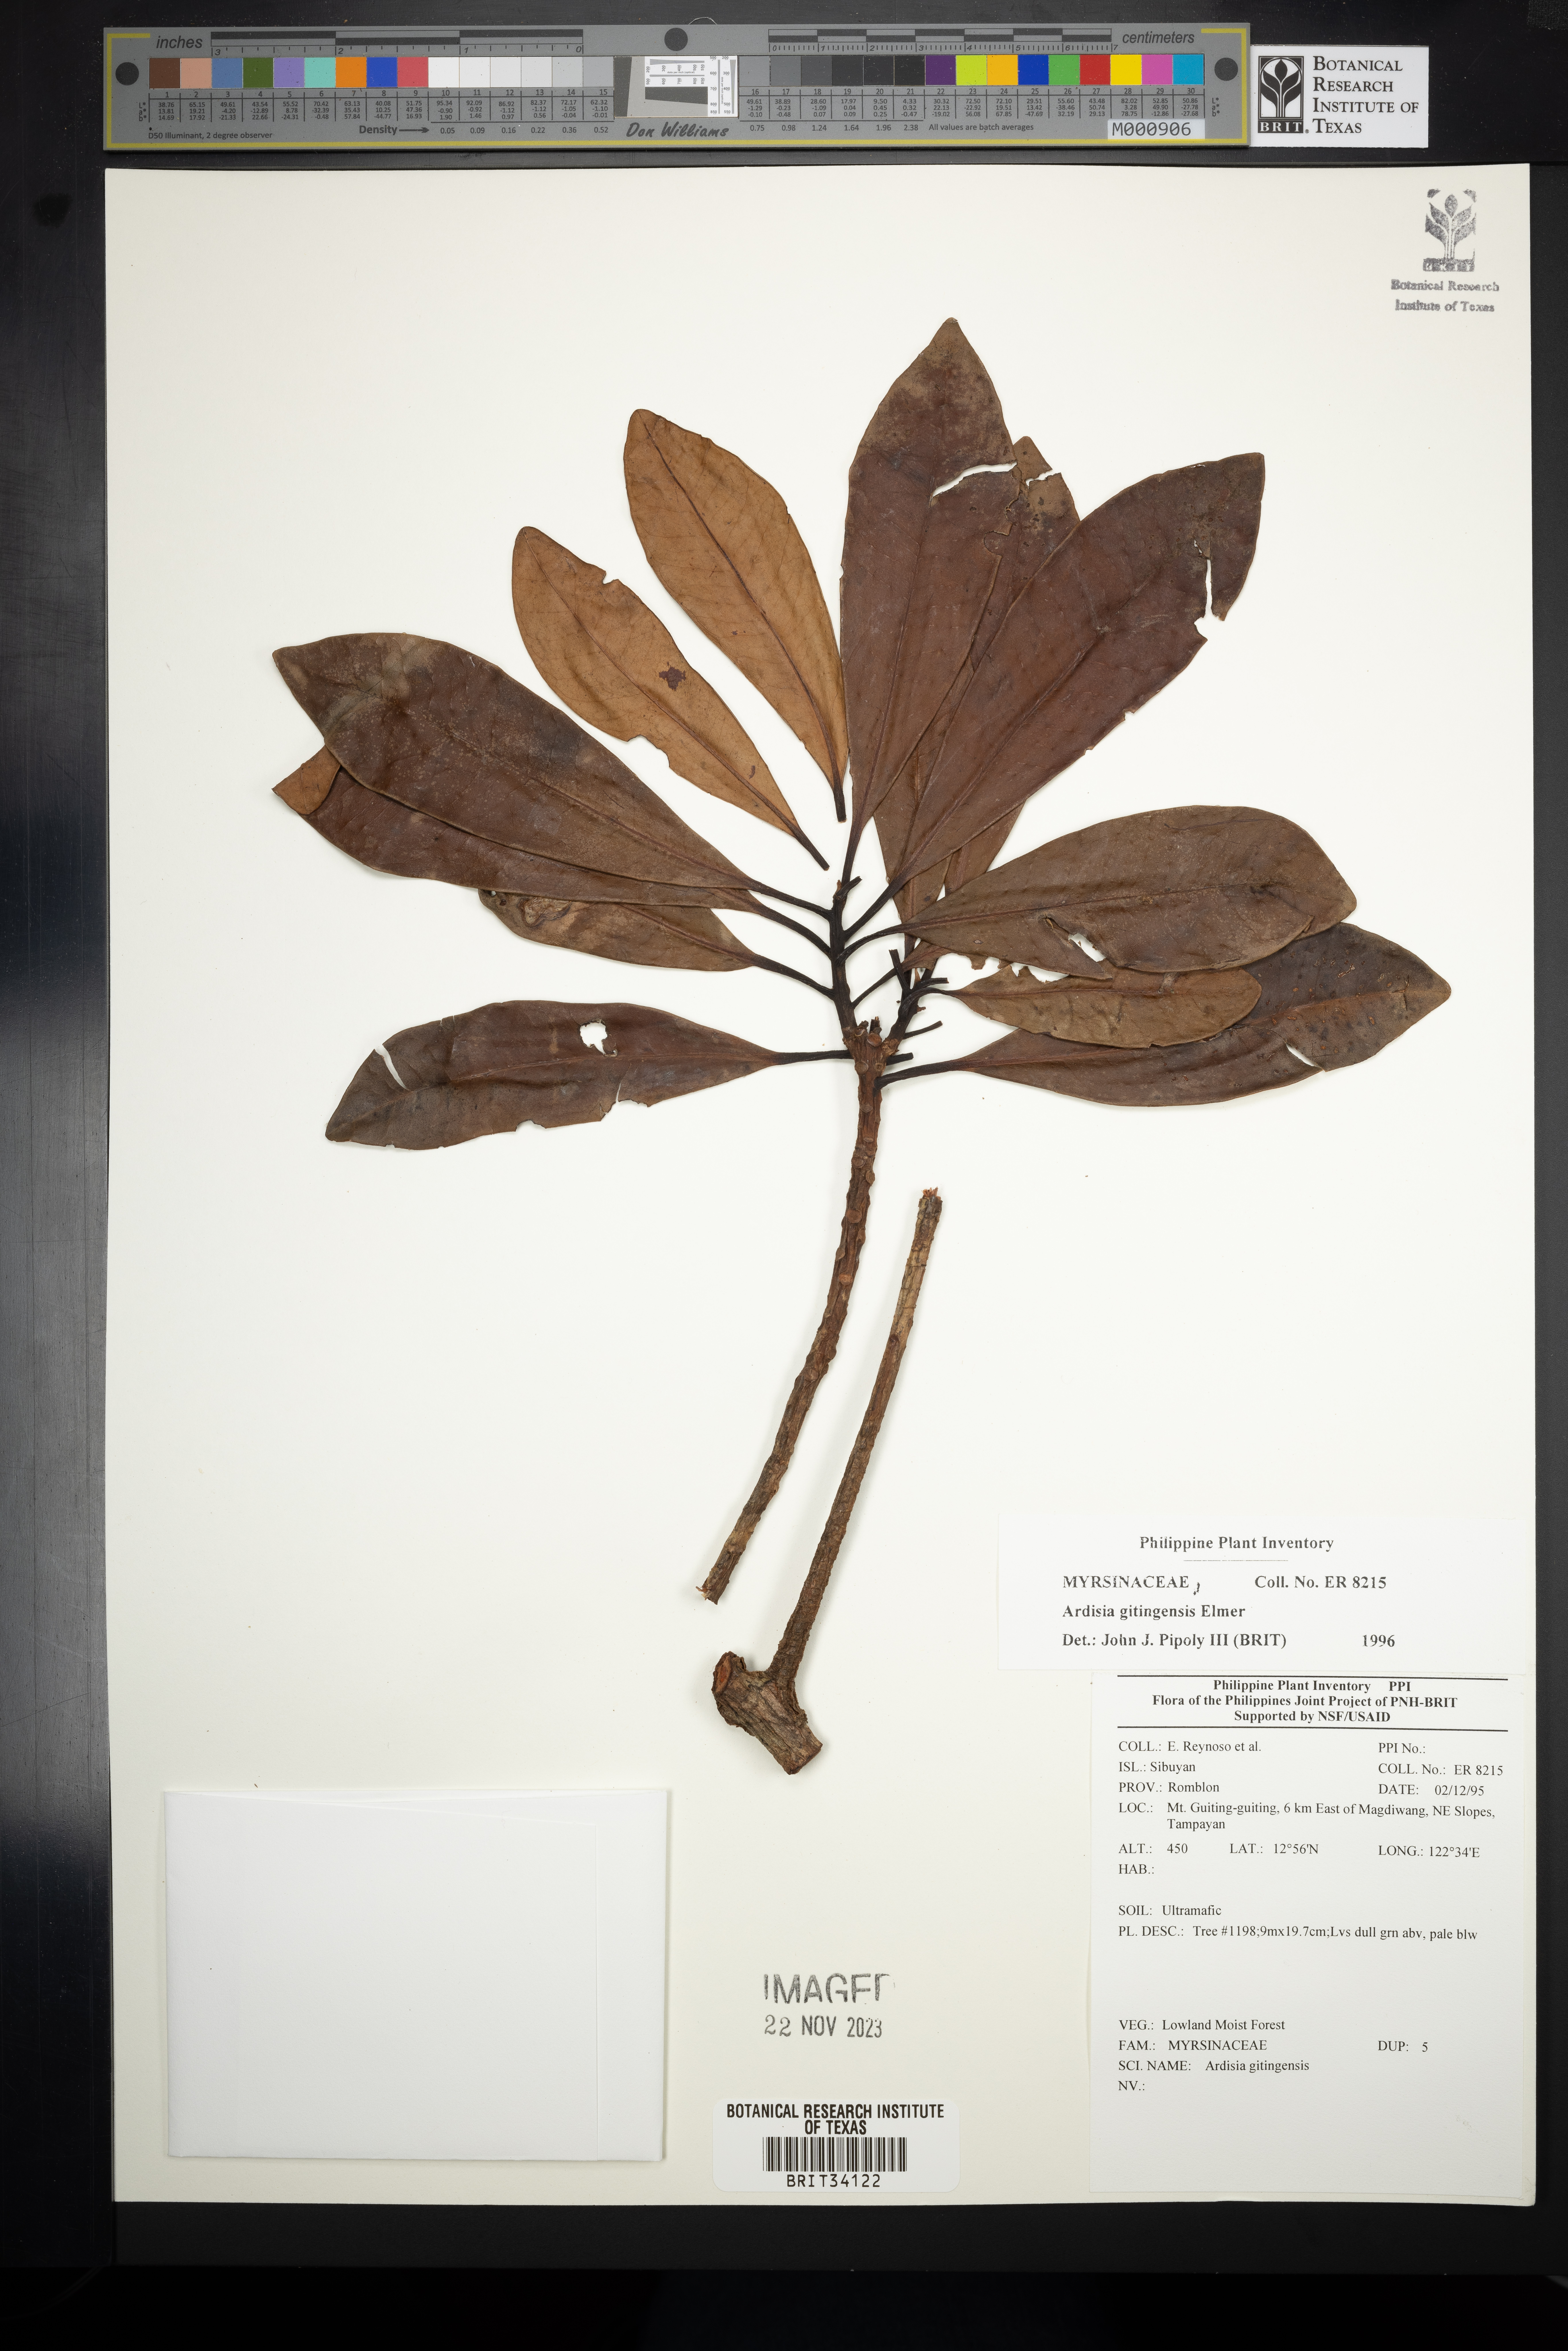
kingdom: Plantae
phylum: Tracheophyta
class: Magnoliopsida
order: Ericales
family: Primulaceae
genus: Ardisia
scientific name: Ardisia darlingii
